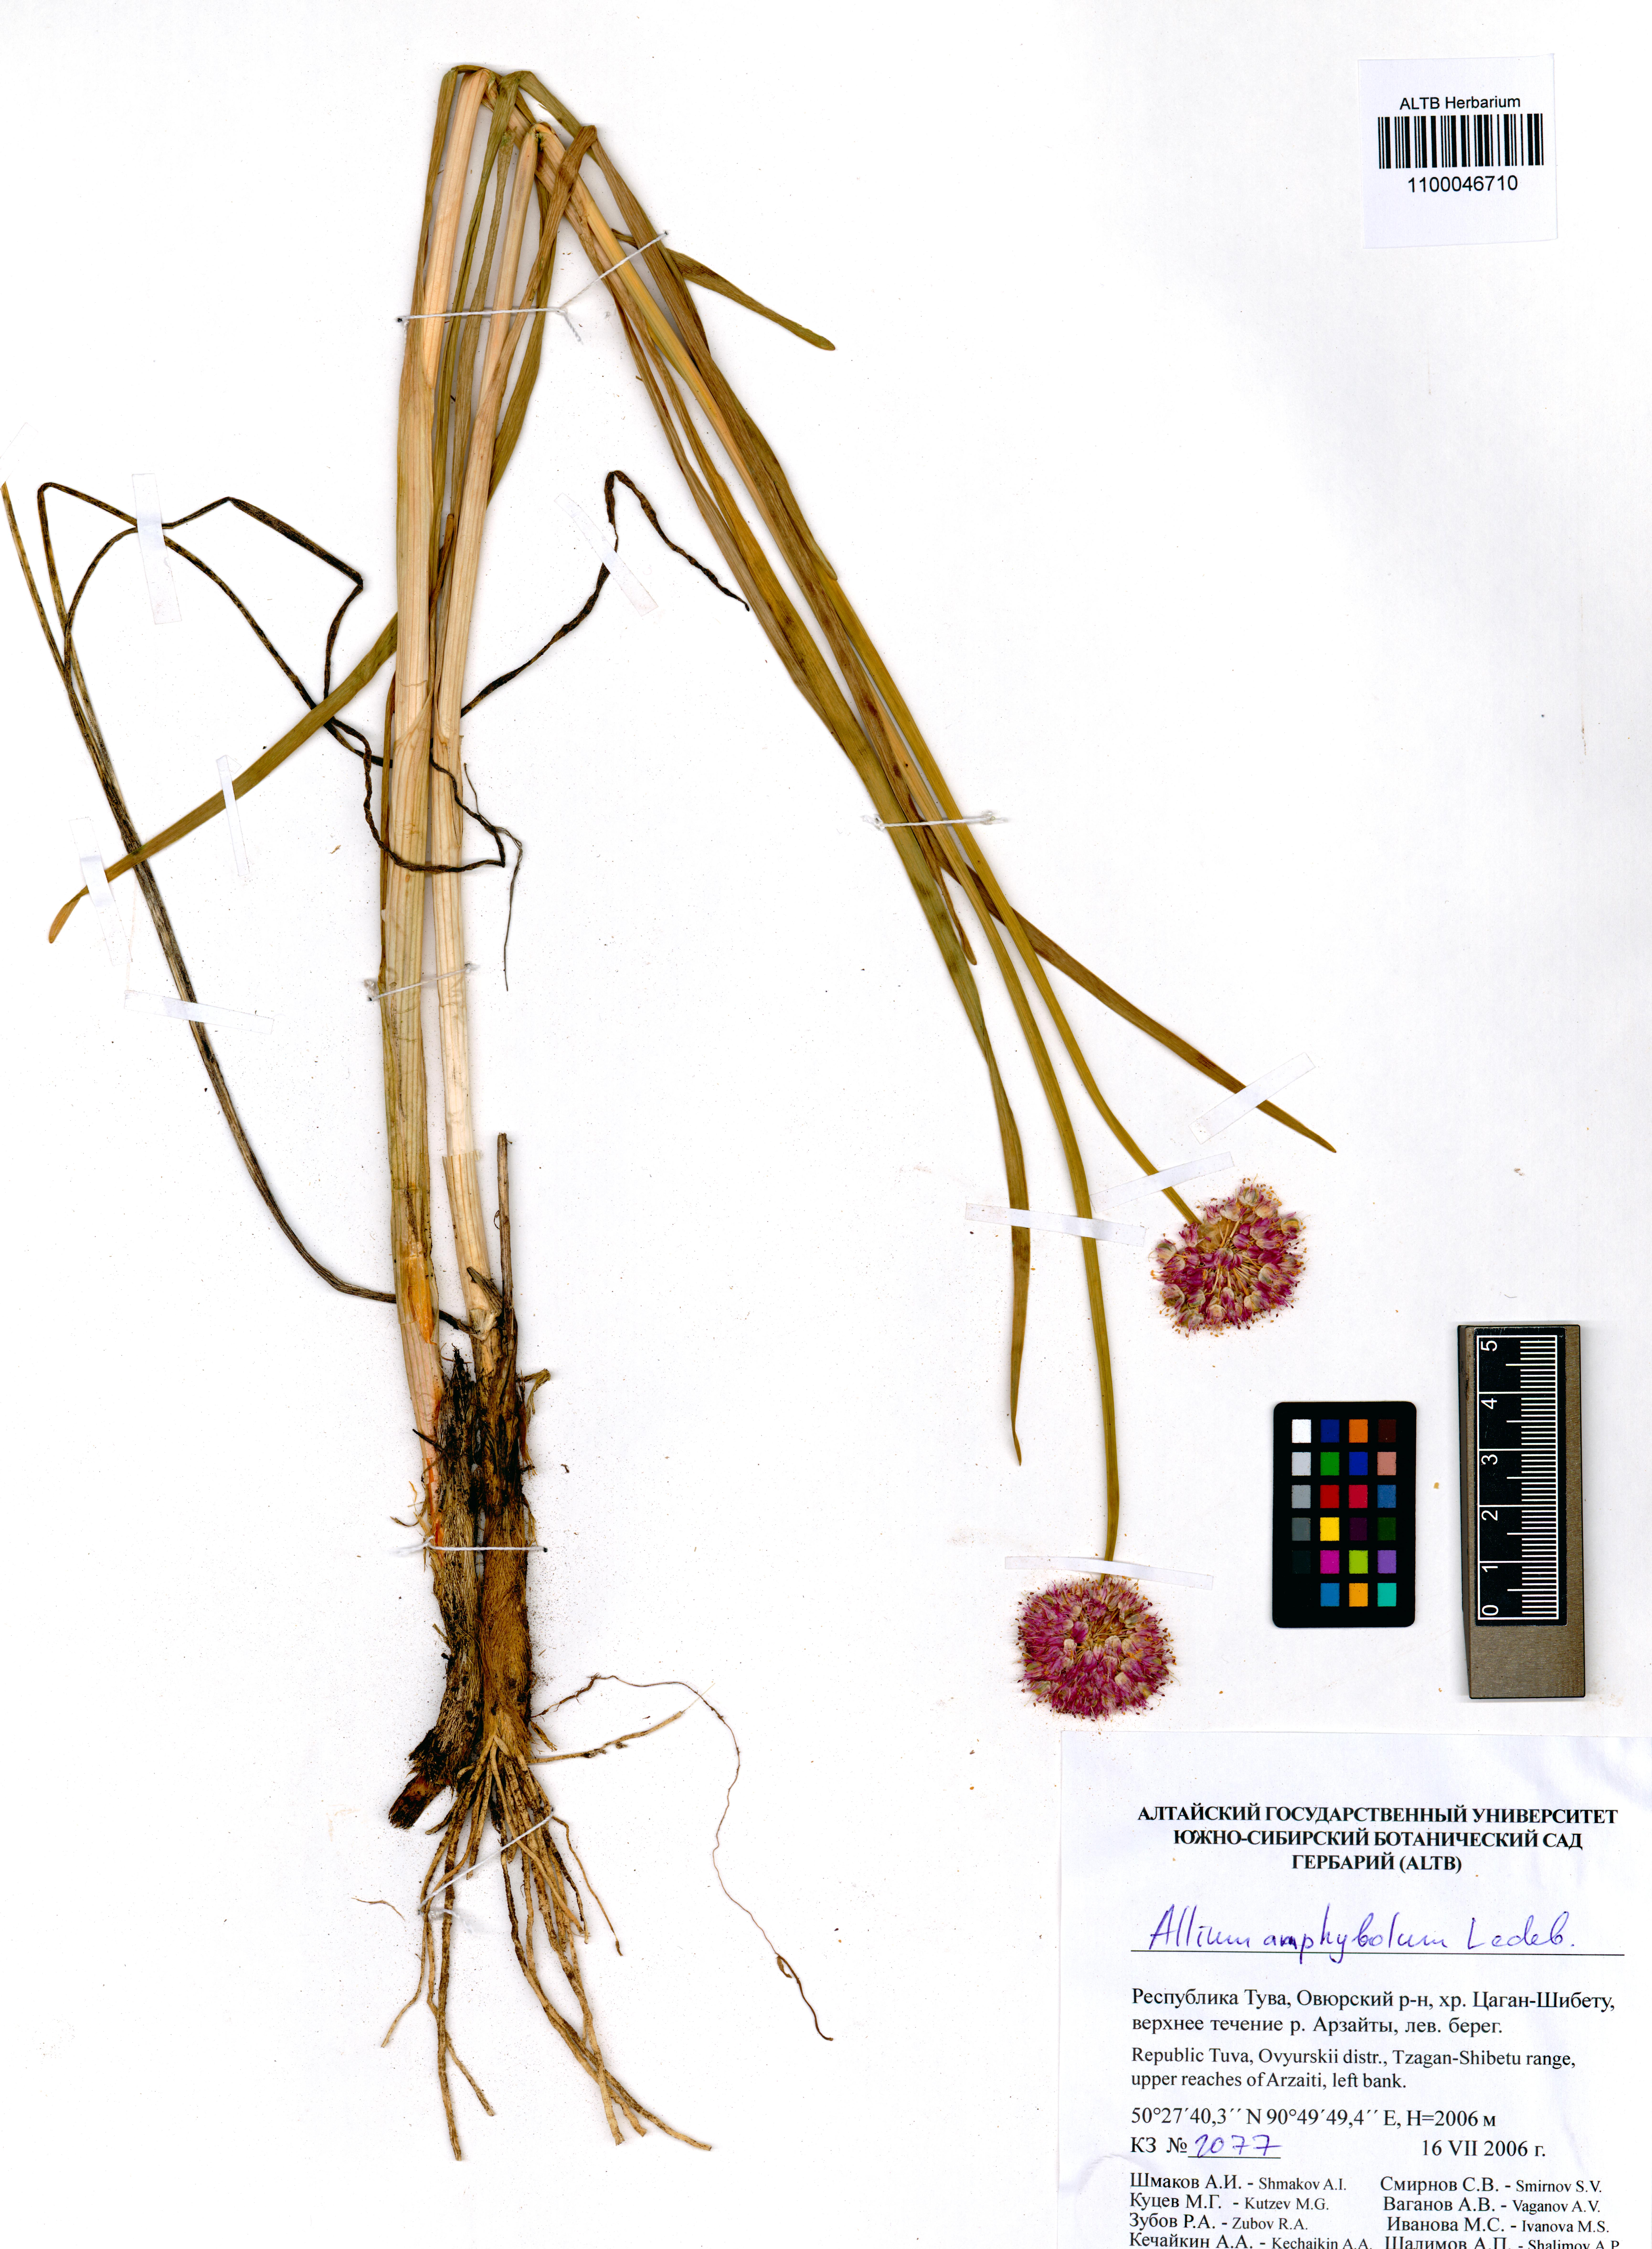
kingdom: Plantae
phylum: Tracheophyta
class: Liliopsida
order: Asparagales
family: Amaryllidaceae
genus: Allium
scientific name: Allium amphibolum
